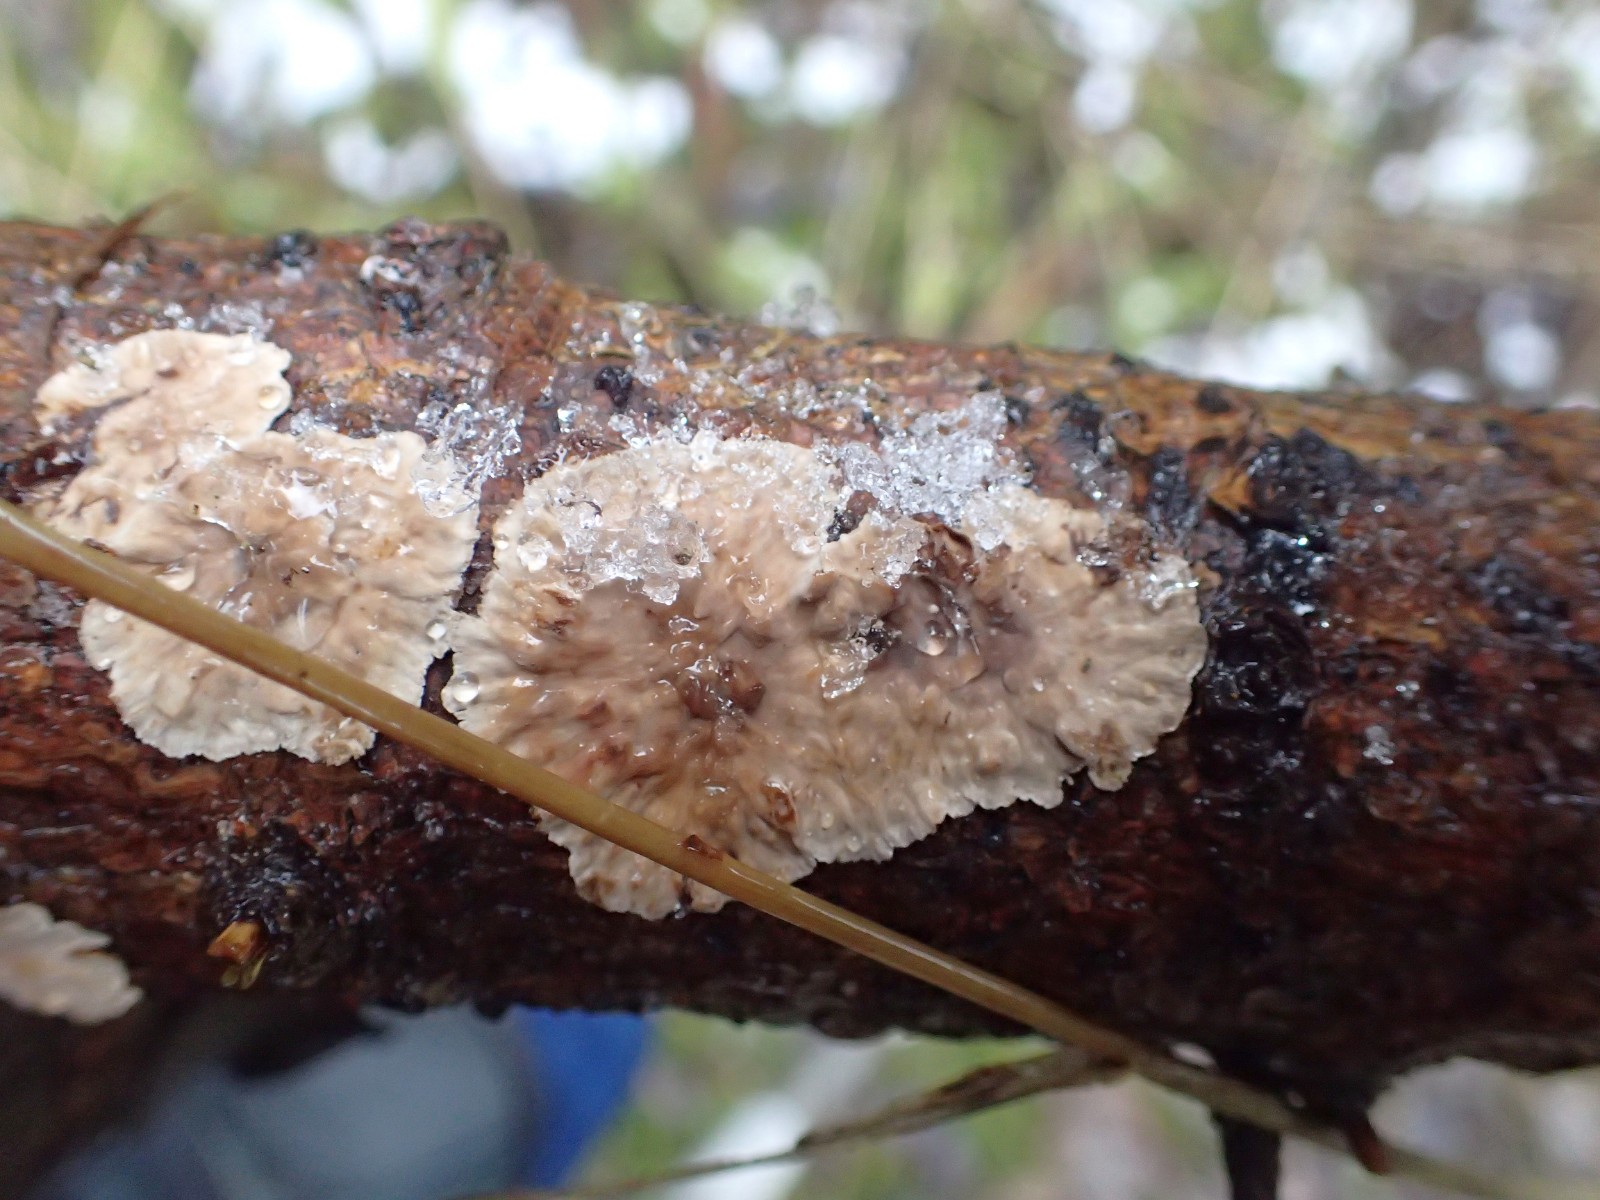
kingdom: Fungi
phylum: Basidiomycota
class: Agaricomycetes
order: Corticiales
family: Corticiaceae
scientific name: Corticiaceae
